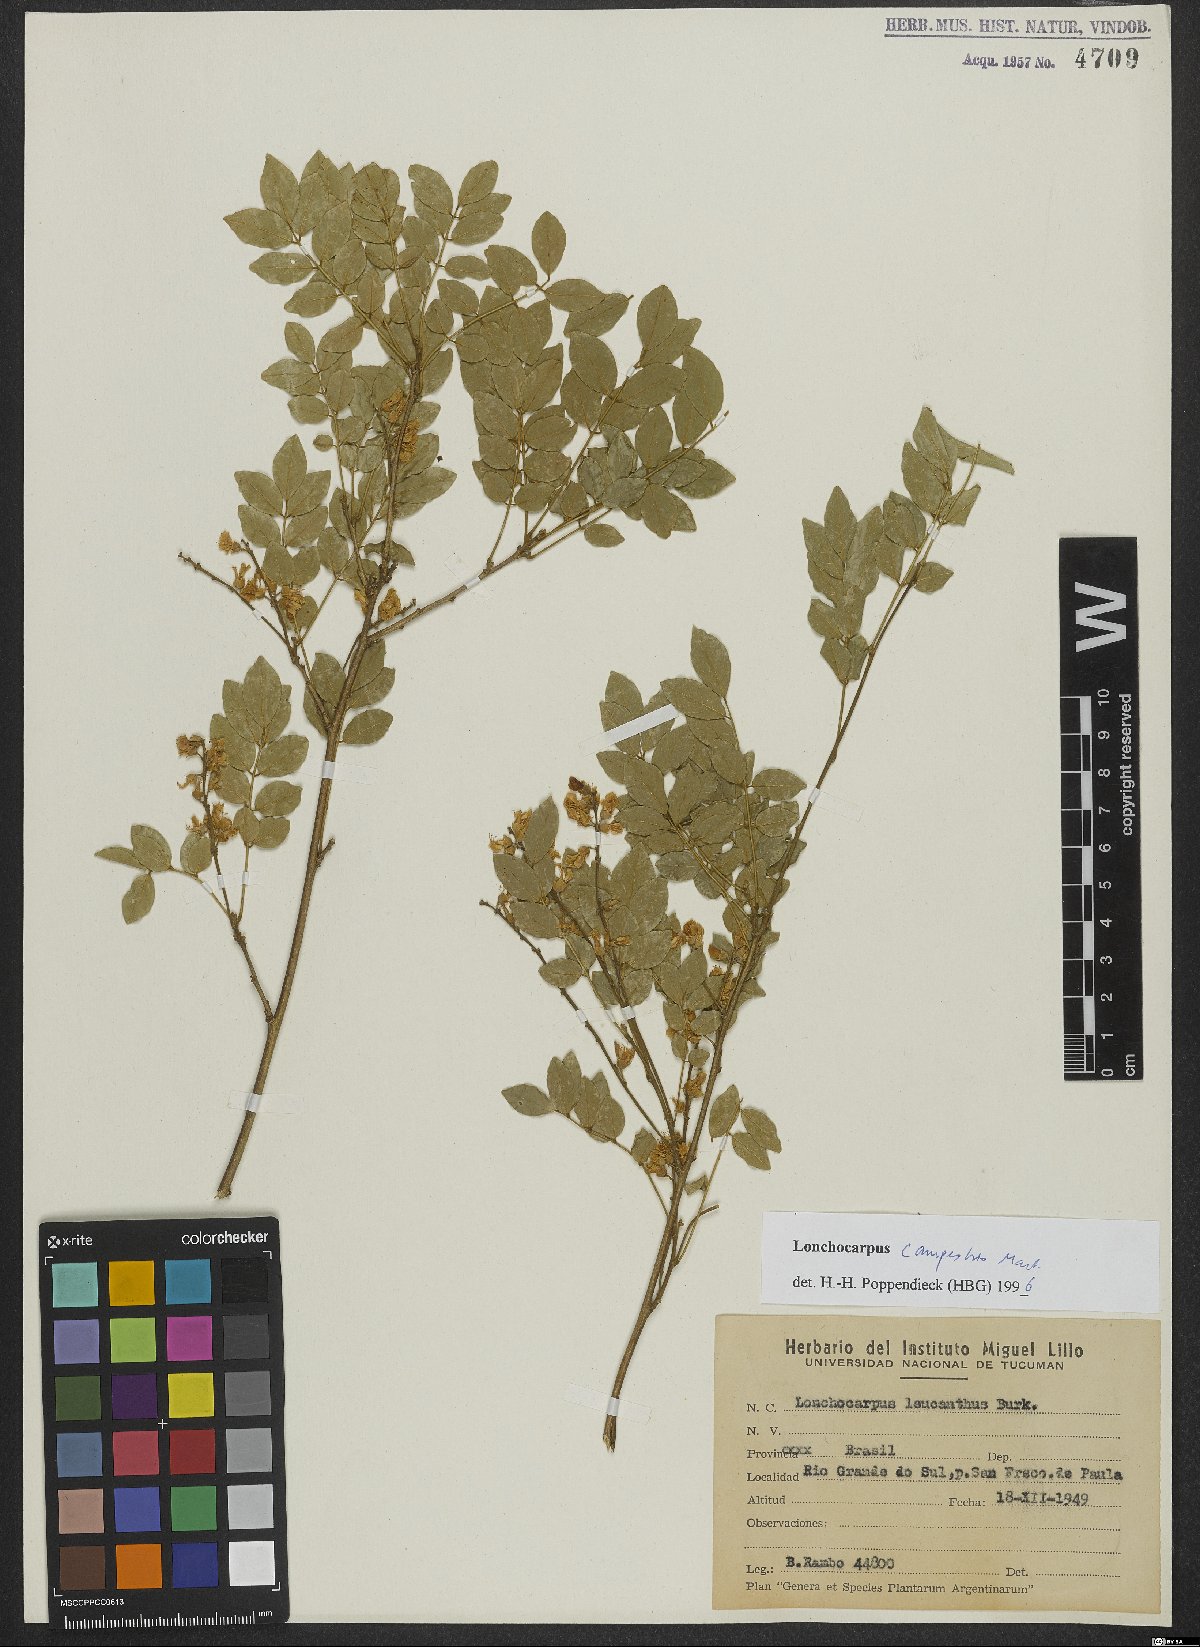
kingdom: Plantae
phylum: Tracheophyta
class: Magnoliopsida
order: Fabales
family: Fabaceae
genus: Muellera
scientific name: Muellera campestris
